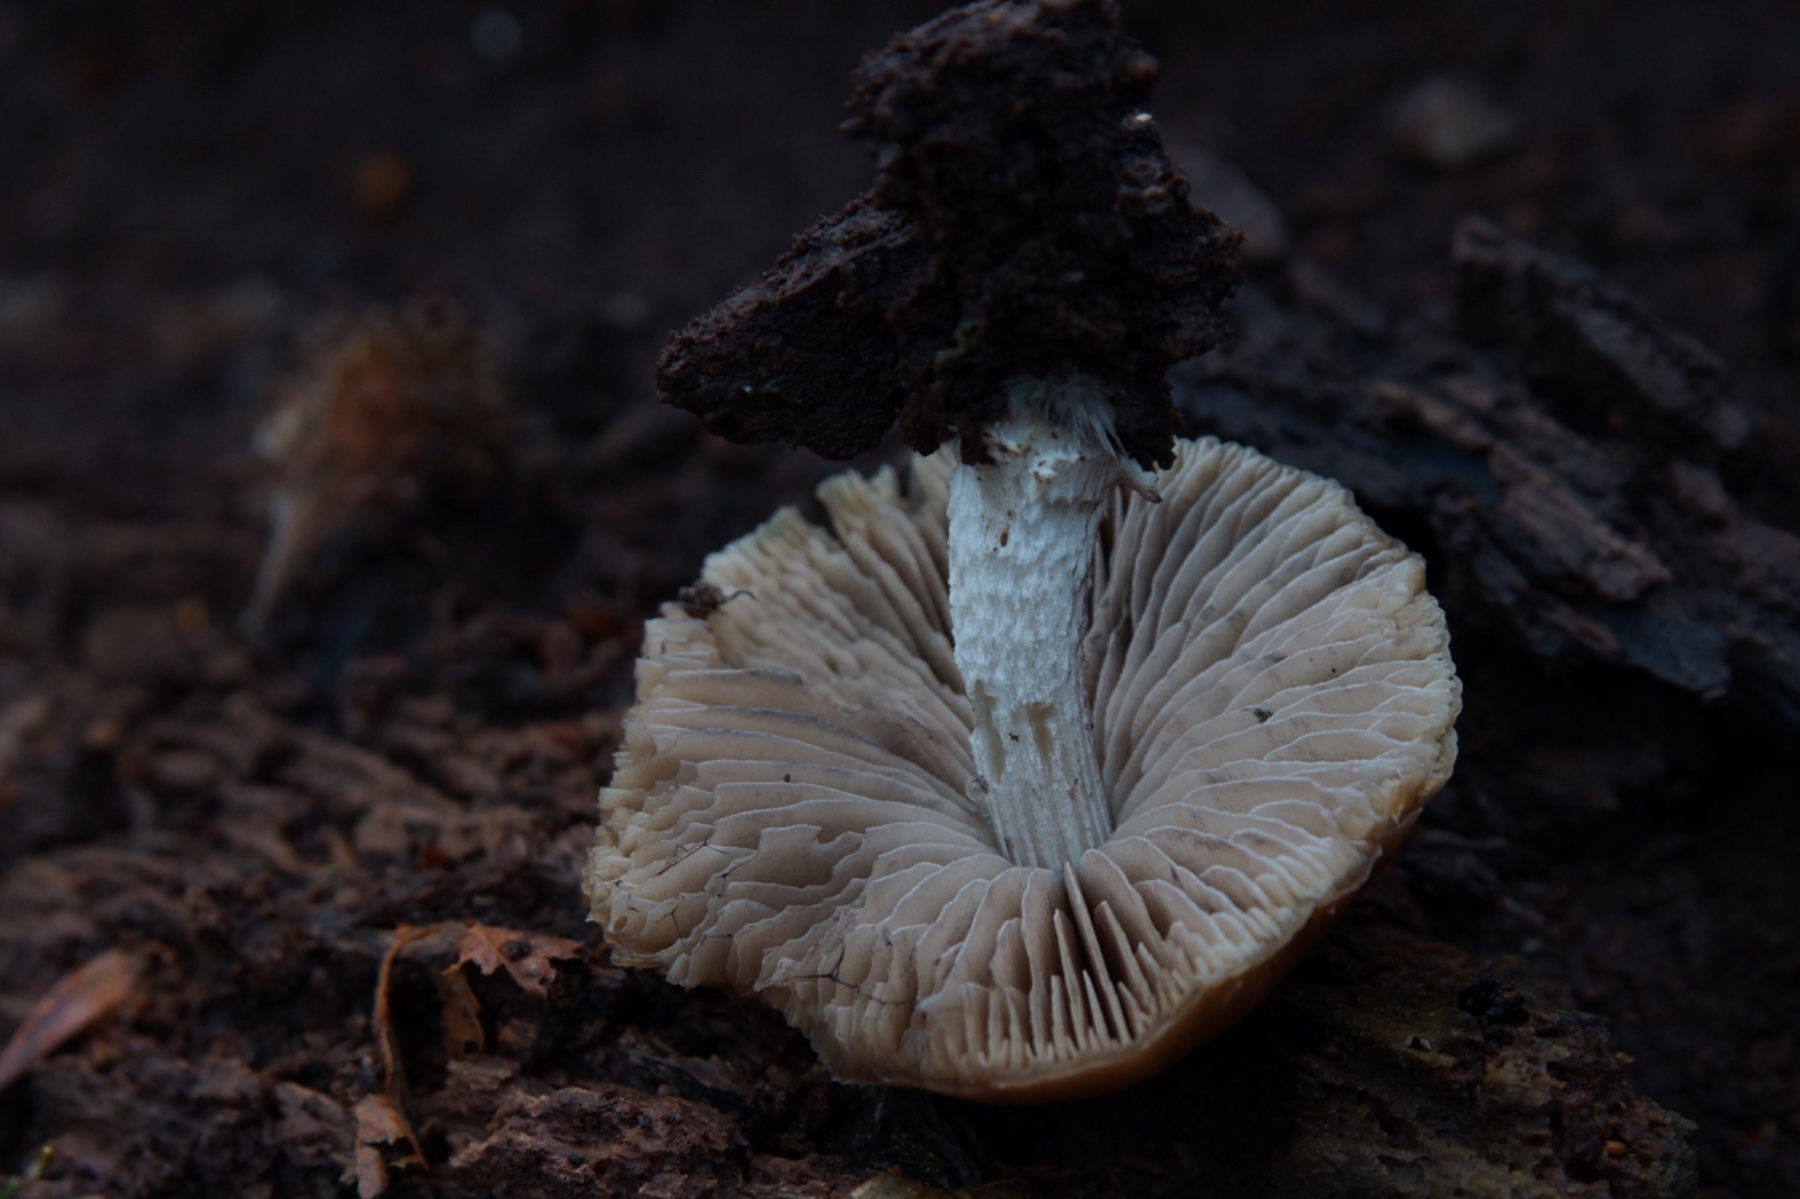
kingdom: Fungi
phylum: Basidiomycota
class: Agaricomycetes
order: Agaricales
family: Psathyrellaceae
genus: Psathyrella
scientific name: Psathyrella
